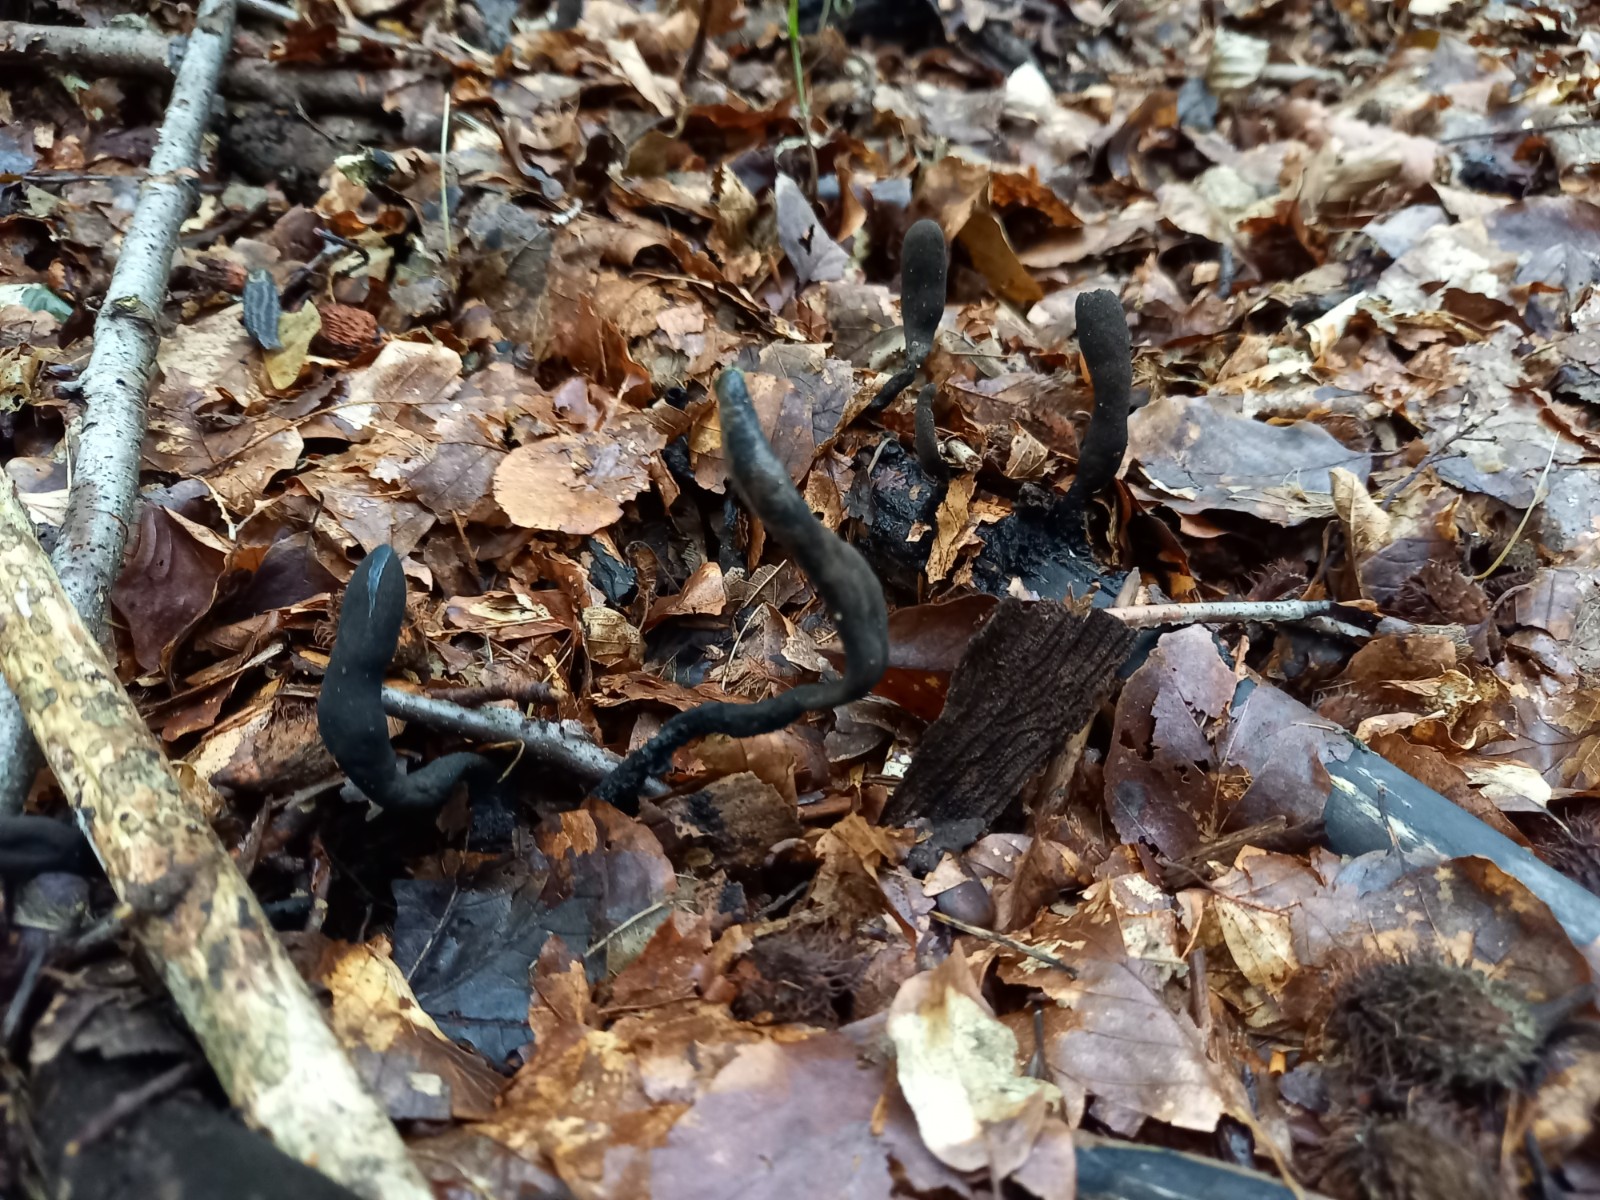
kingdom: Fungi
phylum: Ascomycota
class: Sordariomycetes
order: Xylariales
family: Xylariaceae
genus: Xylaria
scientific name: Xylaria longipes
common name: slank stødsvamp
